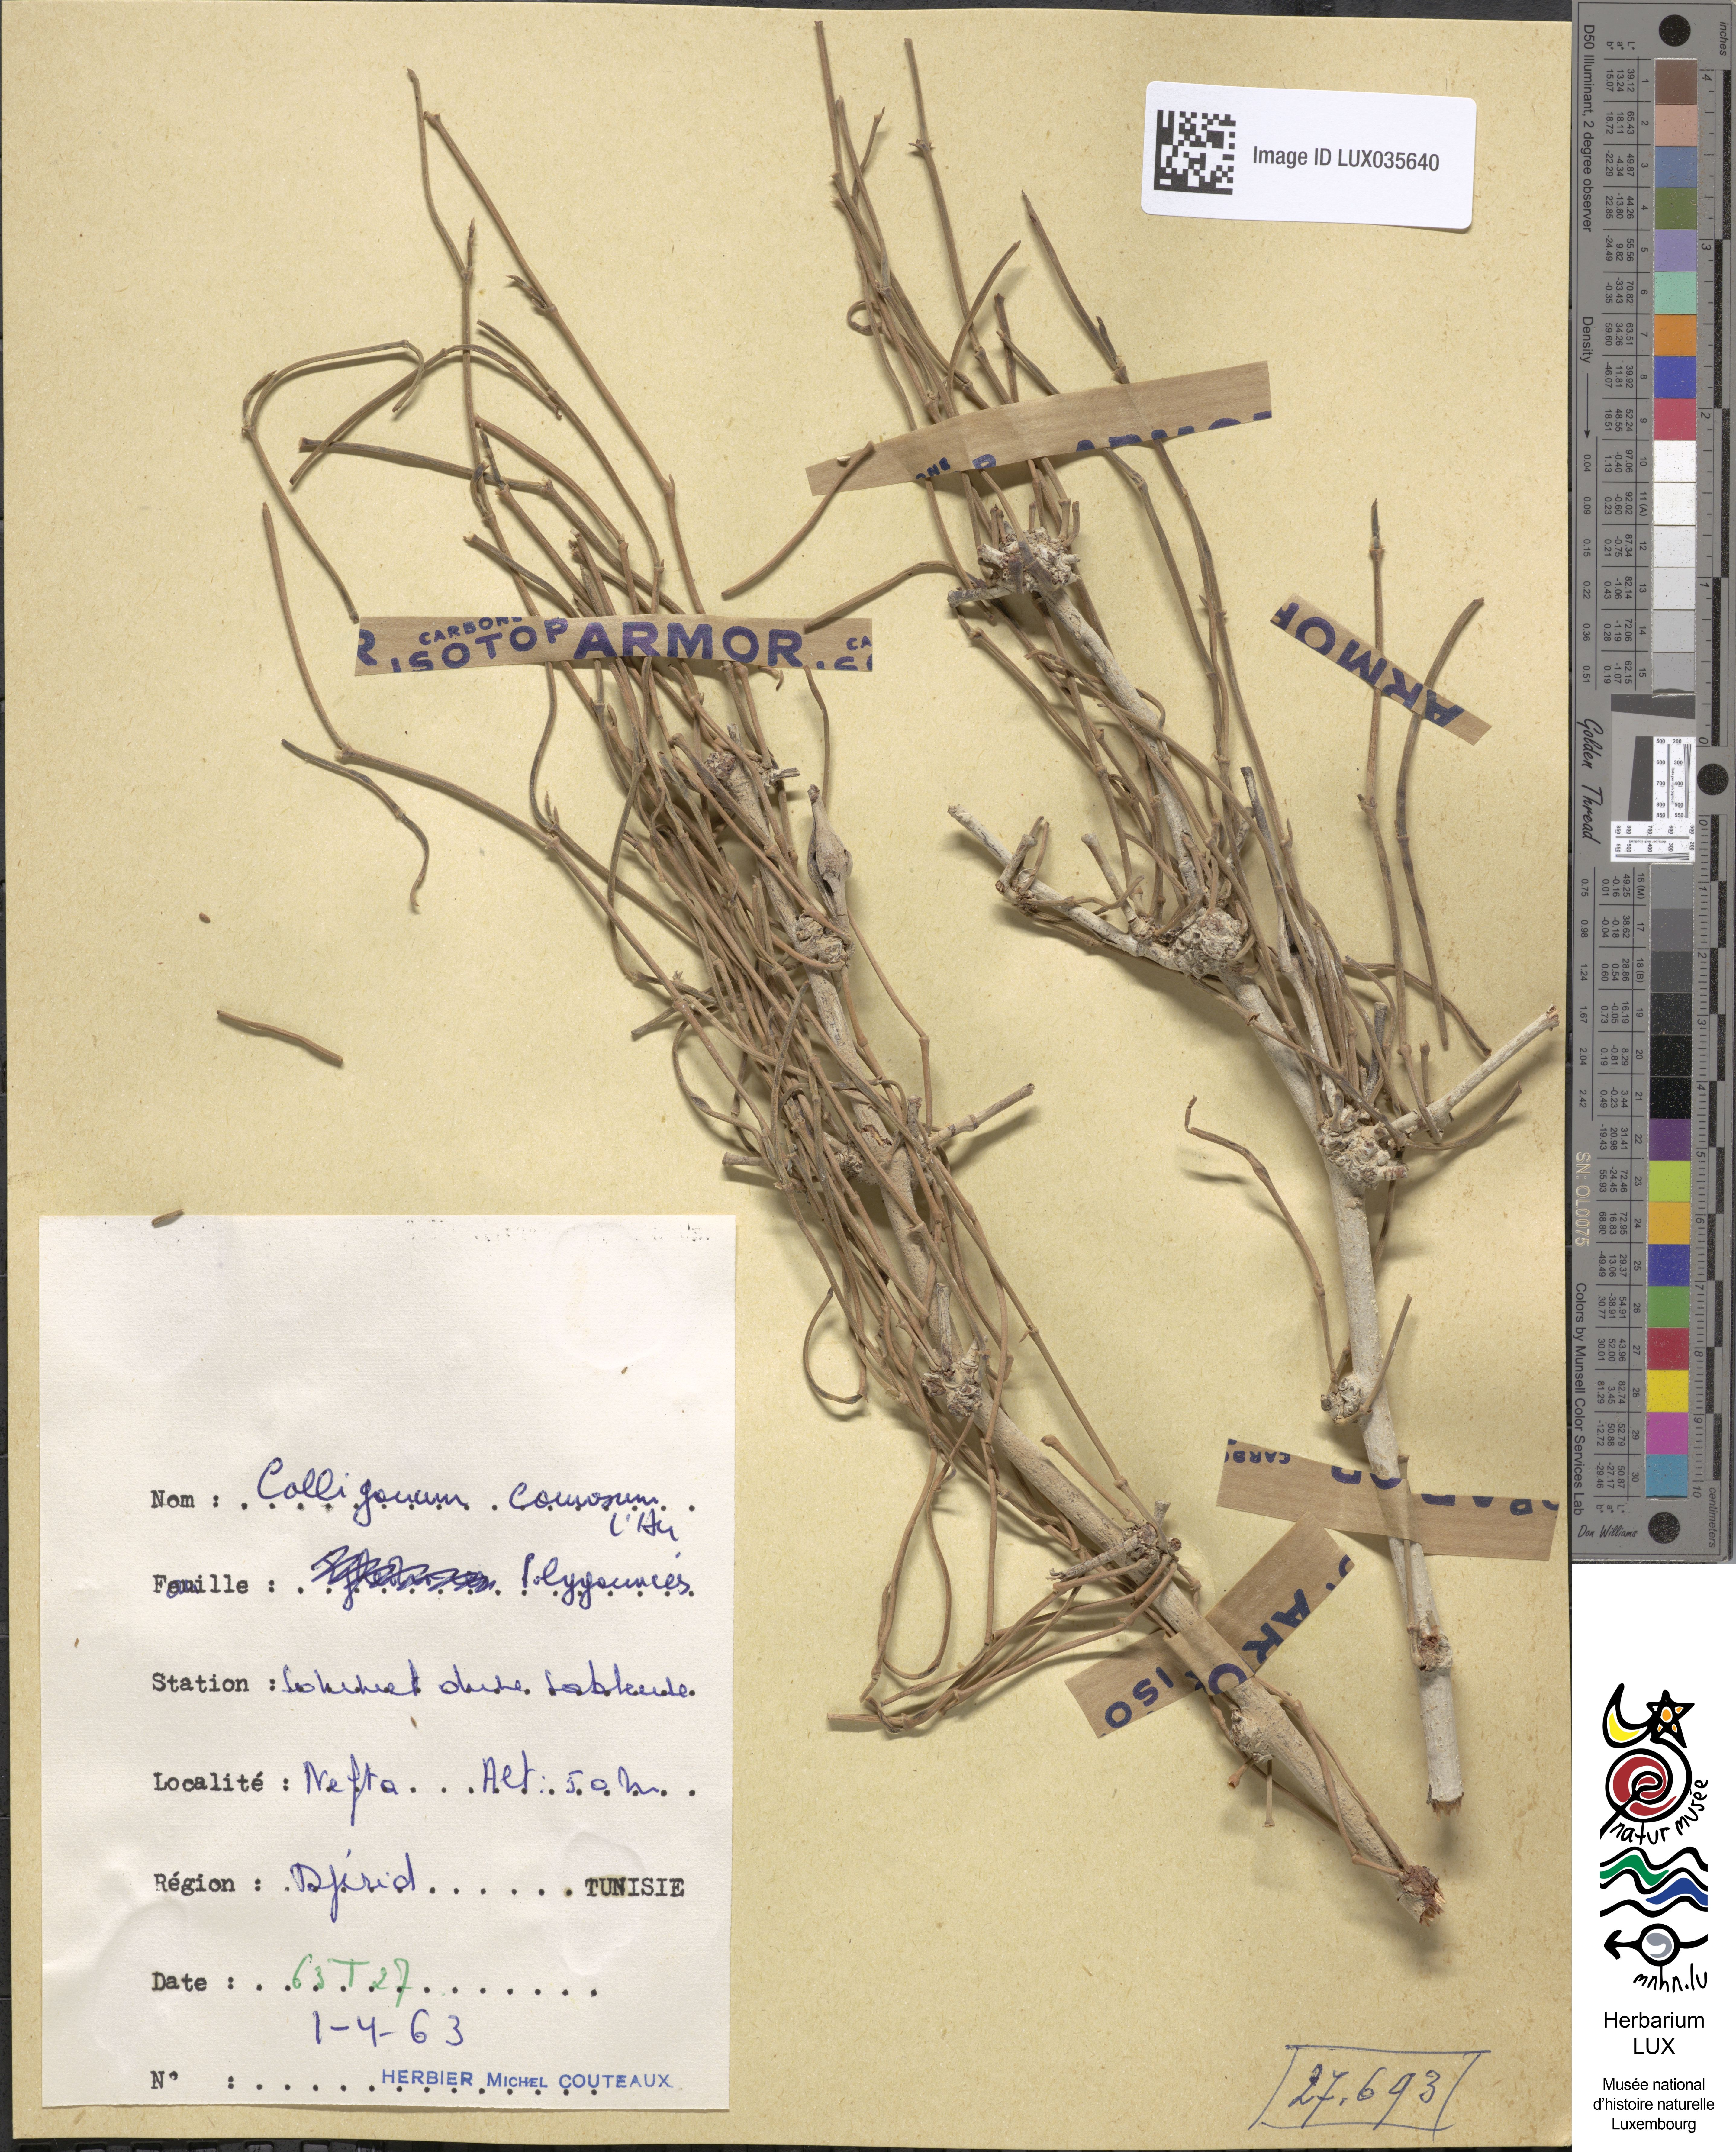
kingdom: Plantae
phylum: Tracheophyta
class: Magnoliopsida
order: Caryophyllales
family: Polygonaceae
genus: Calligonum
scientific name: Calligonum comosum
